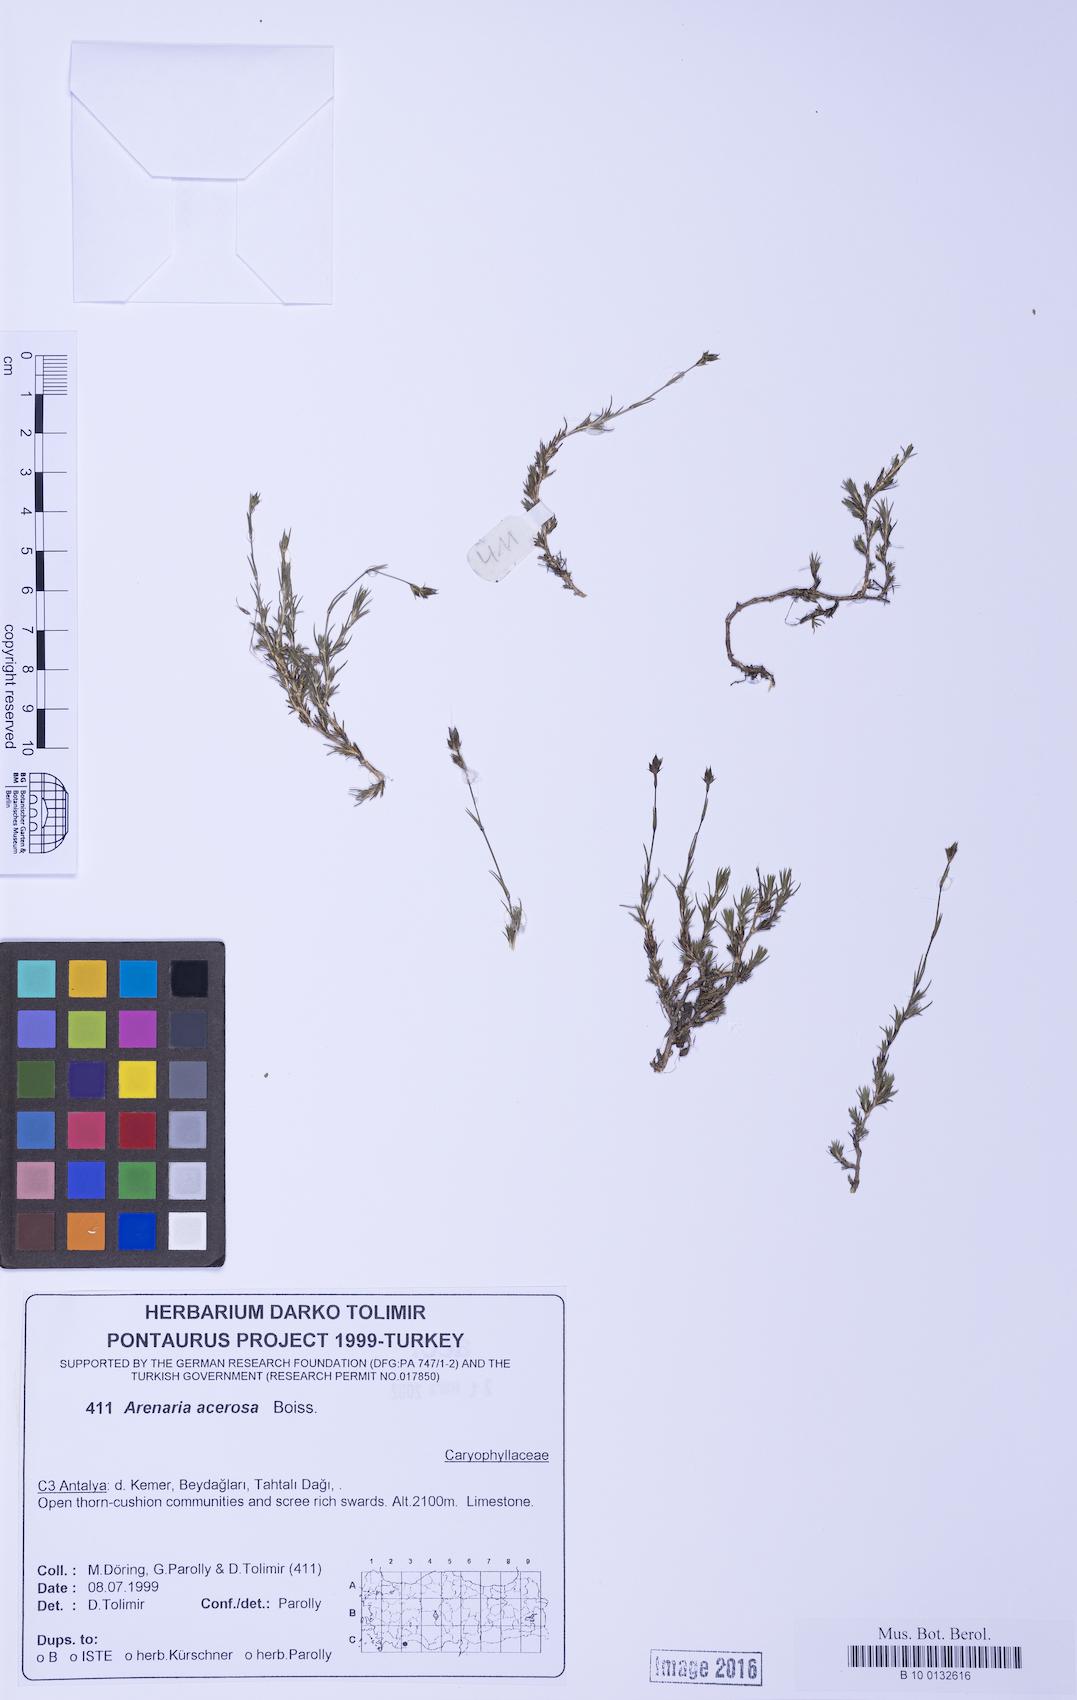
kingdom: Plantae
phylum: Tracheophyta
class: Magnoliopsida
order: Caryophyllales
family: Caryophyllaceae
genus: Eremogone
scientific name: Eremogone acerosa
